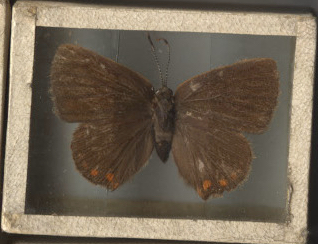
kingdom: Animalia
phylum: Arthropoda
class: Insecta
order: Lepidoptera
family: Lycaenidae
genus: Harkenclenus
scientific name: Harkenclenus titus
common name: Coral Hairstreak
